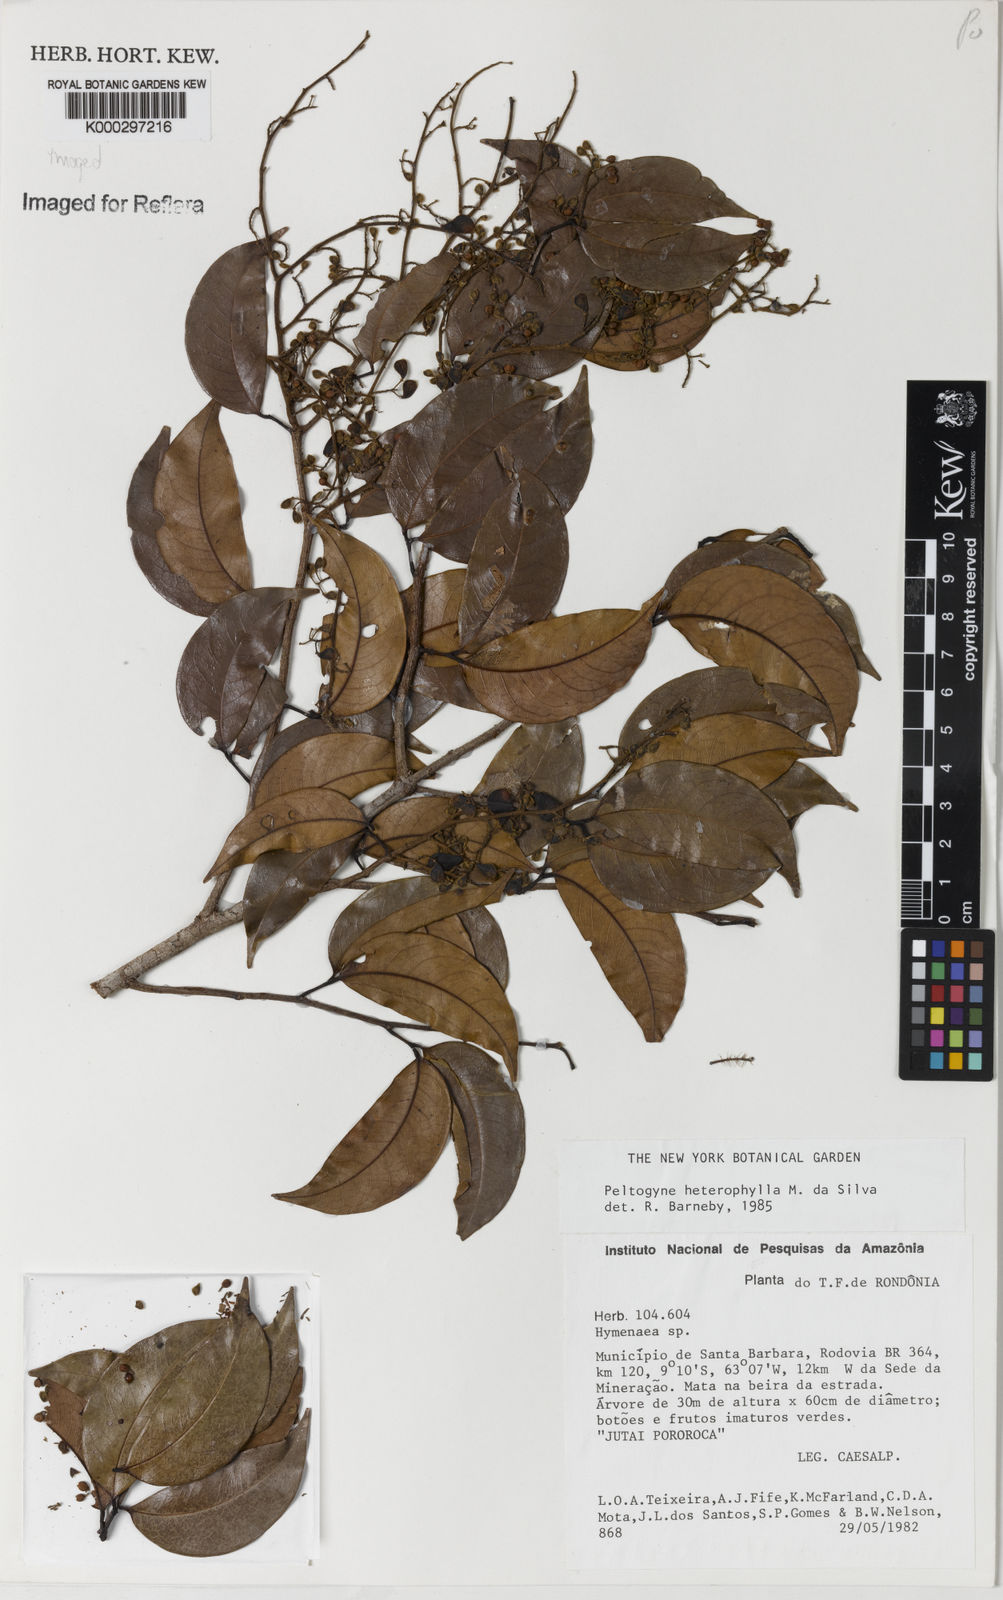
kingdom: Plantae
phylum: Tracheophyta
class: Magnoliopsida
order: Fabales
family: Fabaceae
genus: Peltogyne
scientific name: Peltogyne heterophylla
